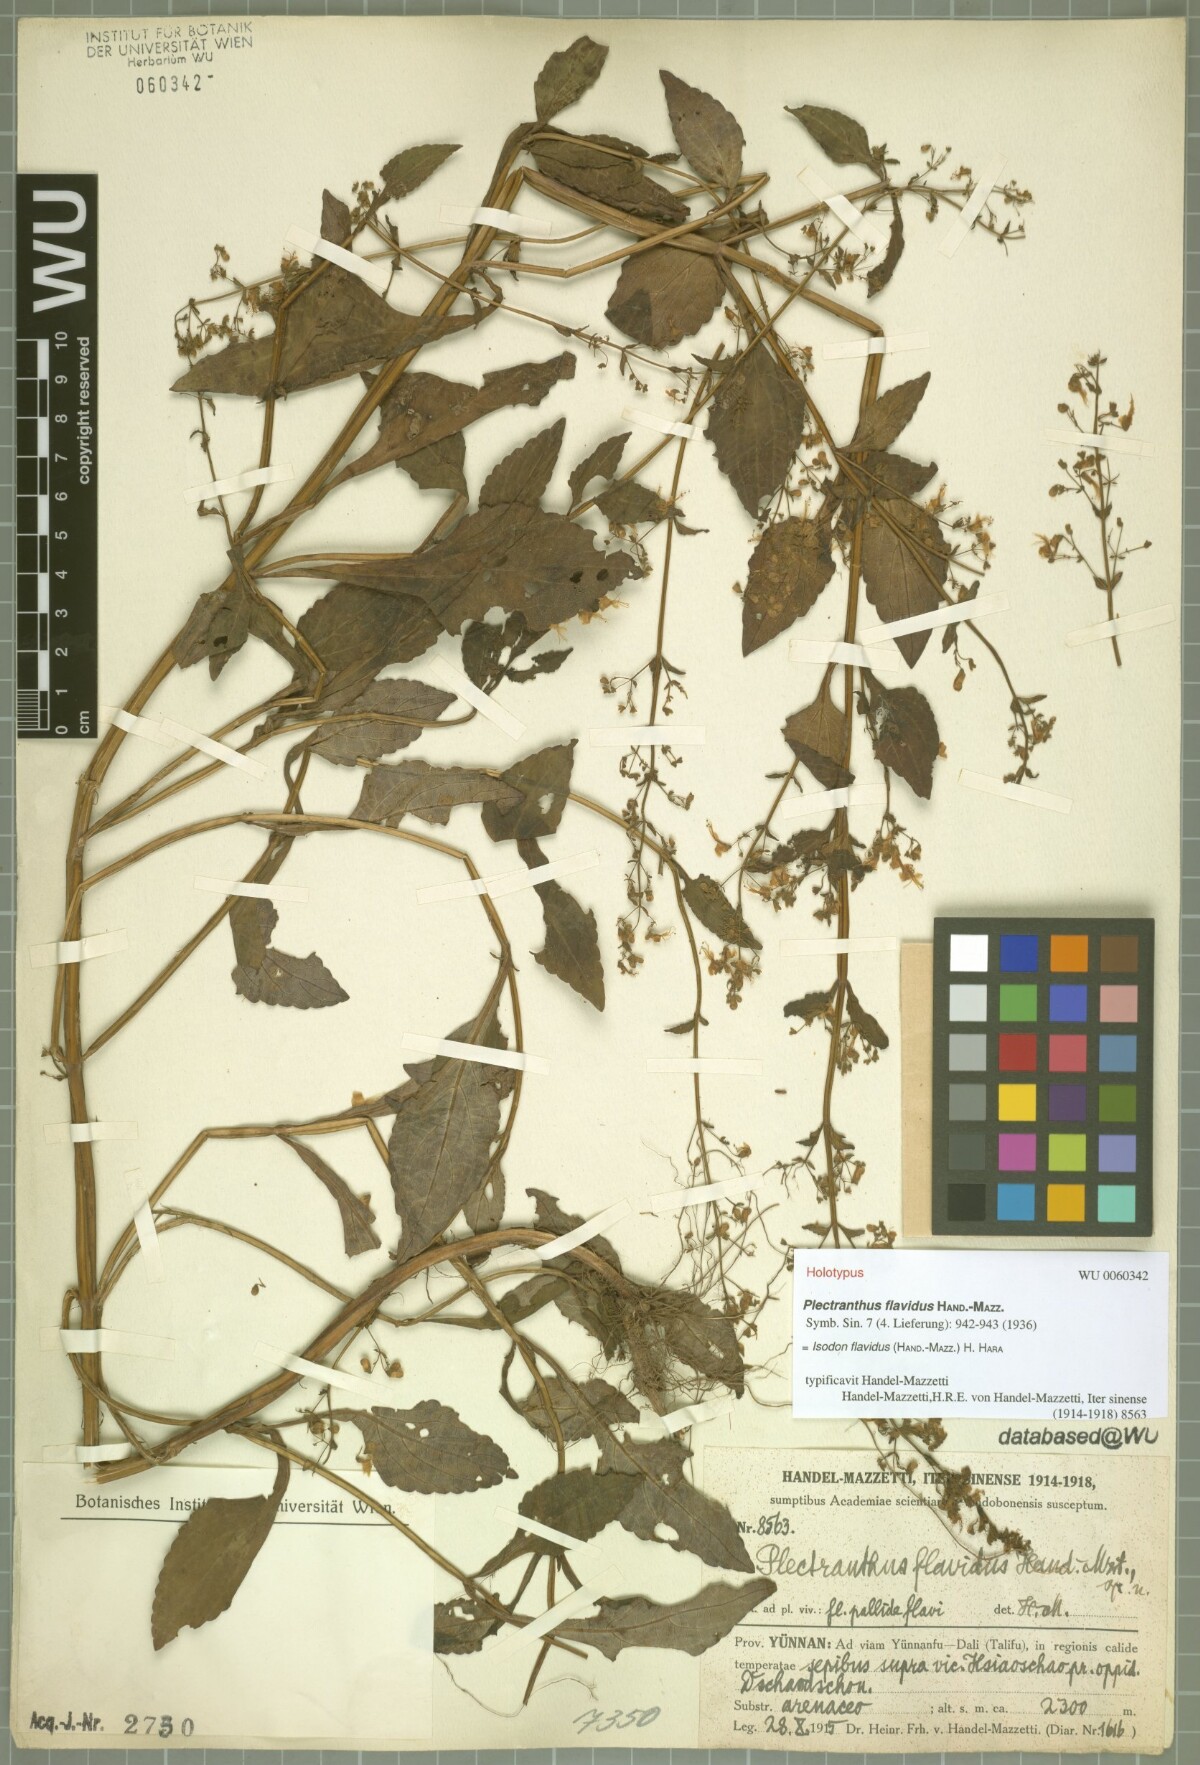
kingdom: Plantae
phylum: Tracheophyta
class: Magnoliopsida
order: Lamiales
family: Lamiaceae
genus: Isodon
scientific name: Isodon flavidus
